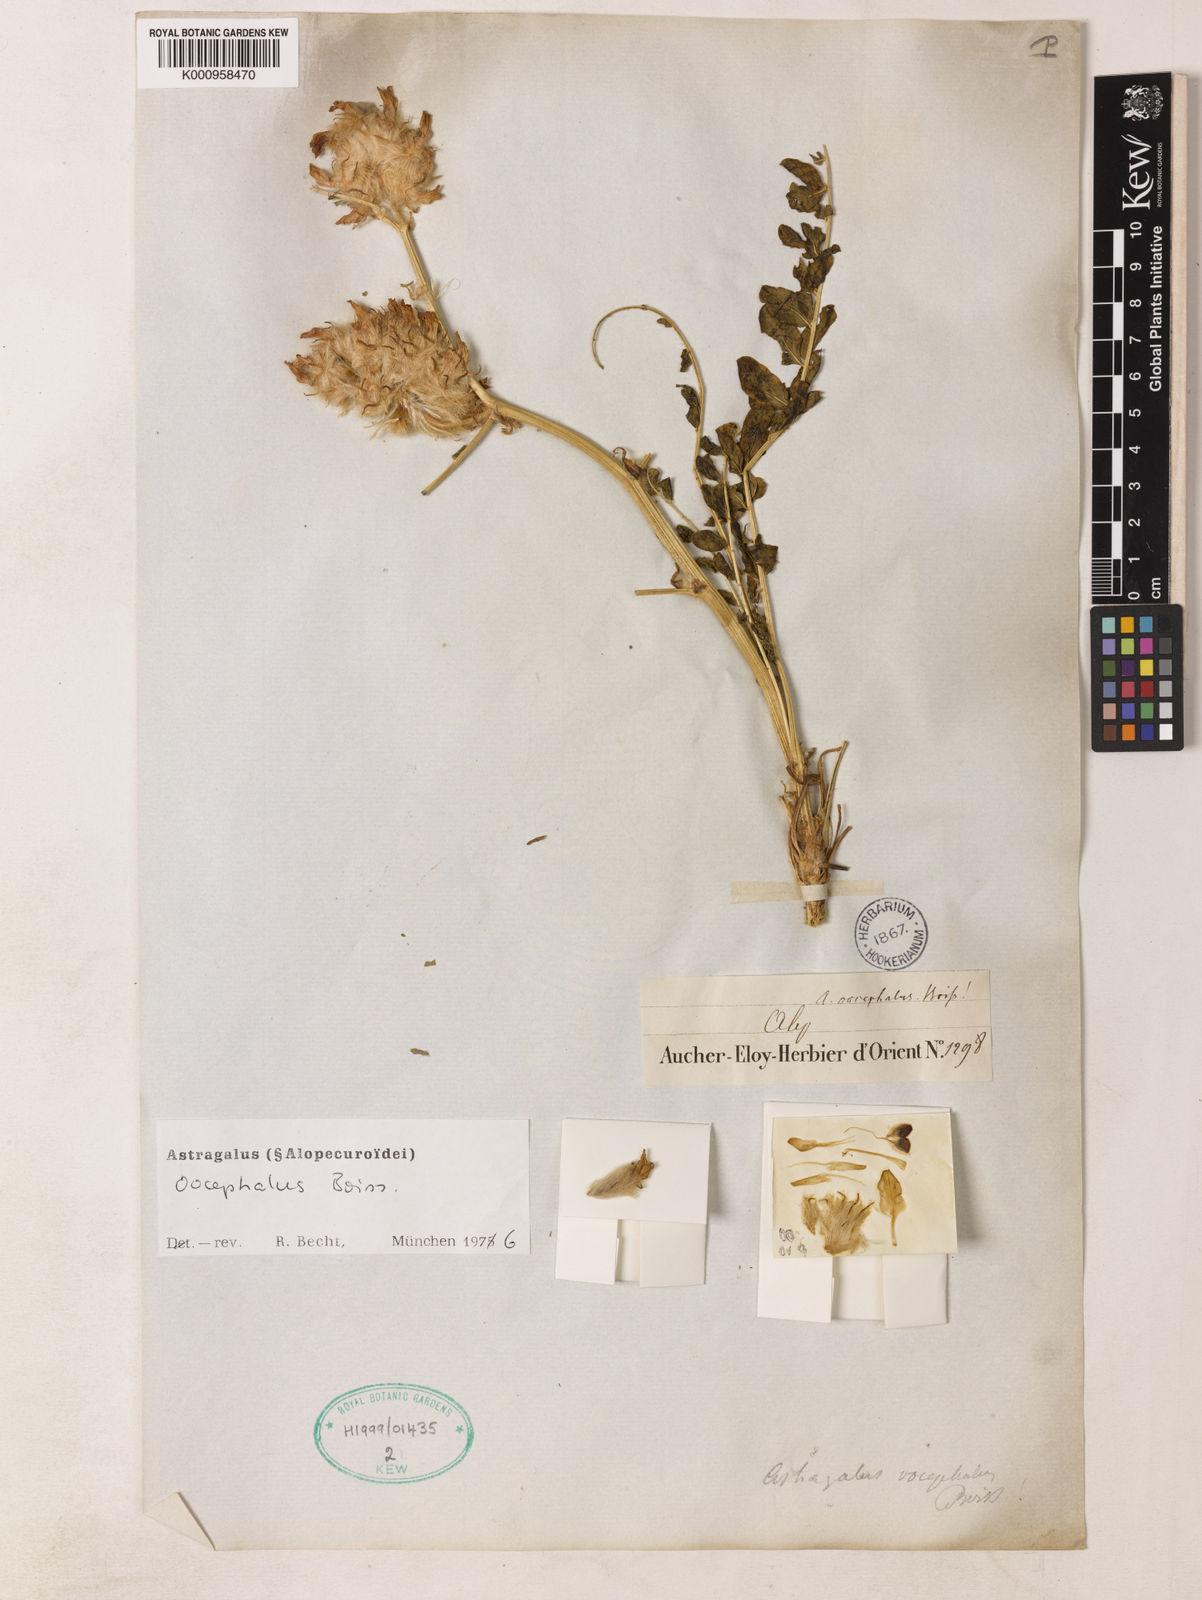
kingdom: Plantae
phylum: Tracheophyta
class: Magnoliopsida
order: Fabales
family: Fabaceae
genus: Astragalus
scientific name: Astragalus
